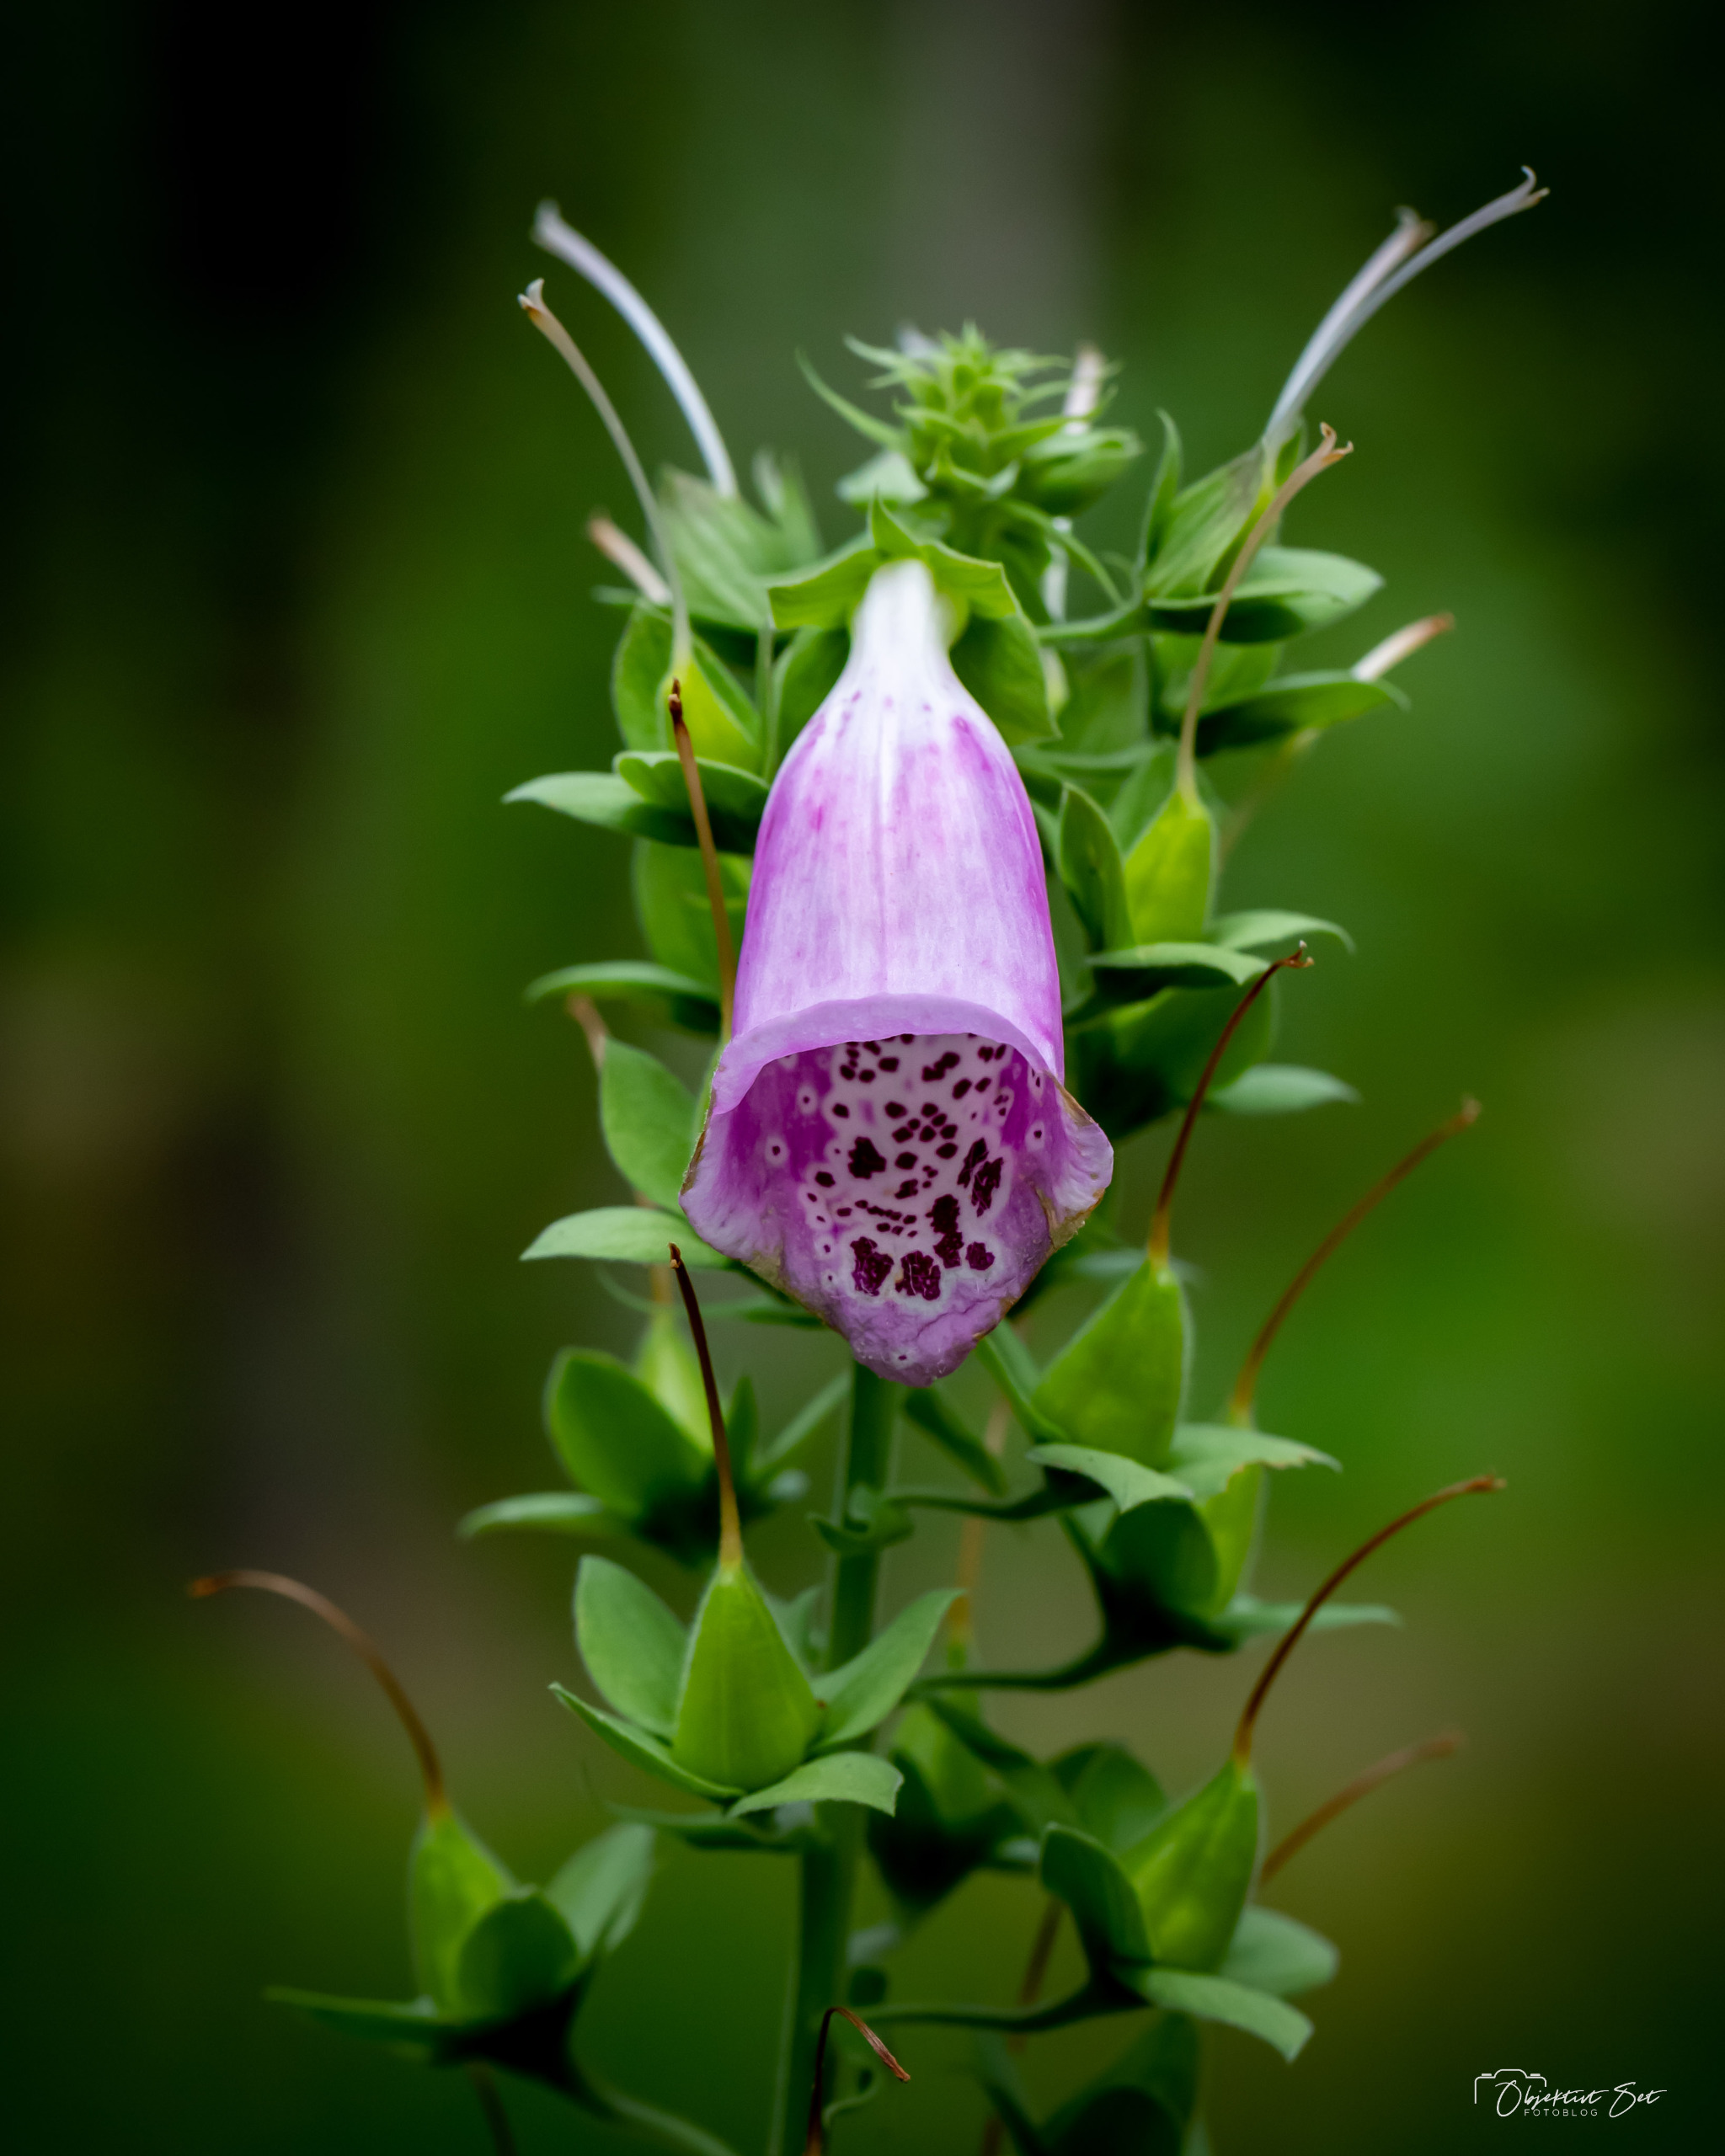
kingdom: Plantae
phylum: Tracheophyta
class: Magnoliopsida
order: Lamiales
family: Plantaginaceae
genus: Digitalis
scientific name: Digitalis purpurea
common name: Almindelig fingerbøl
